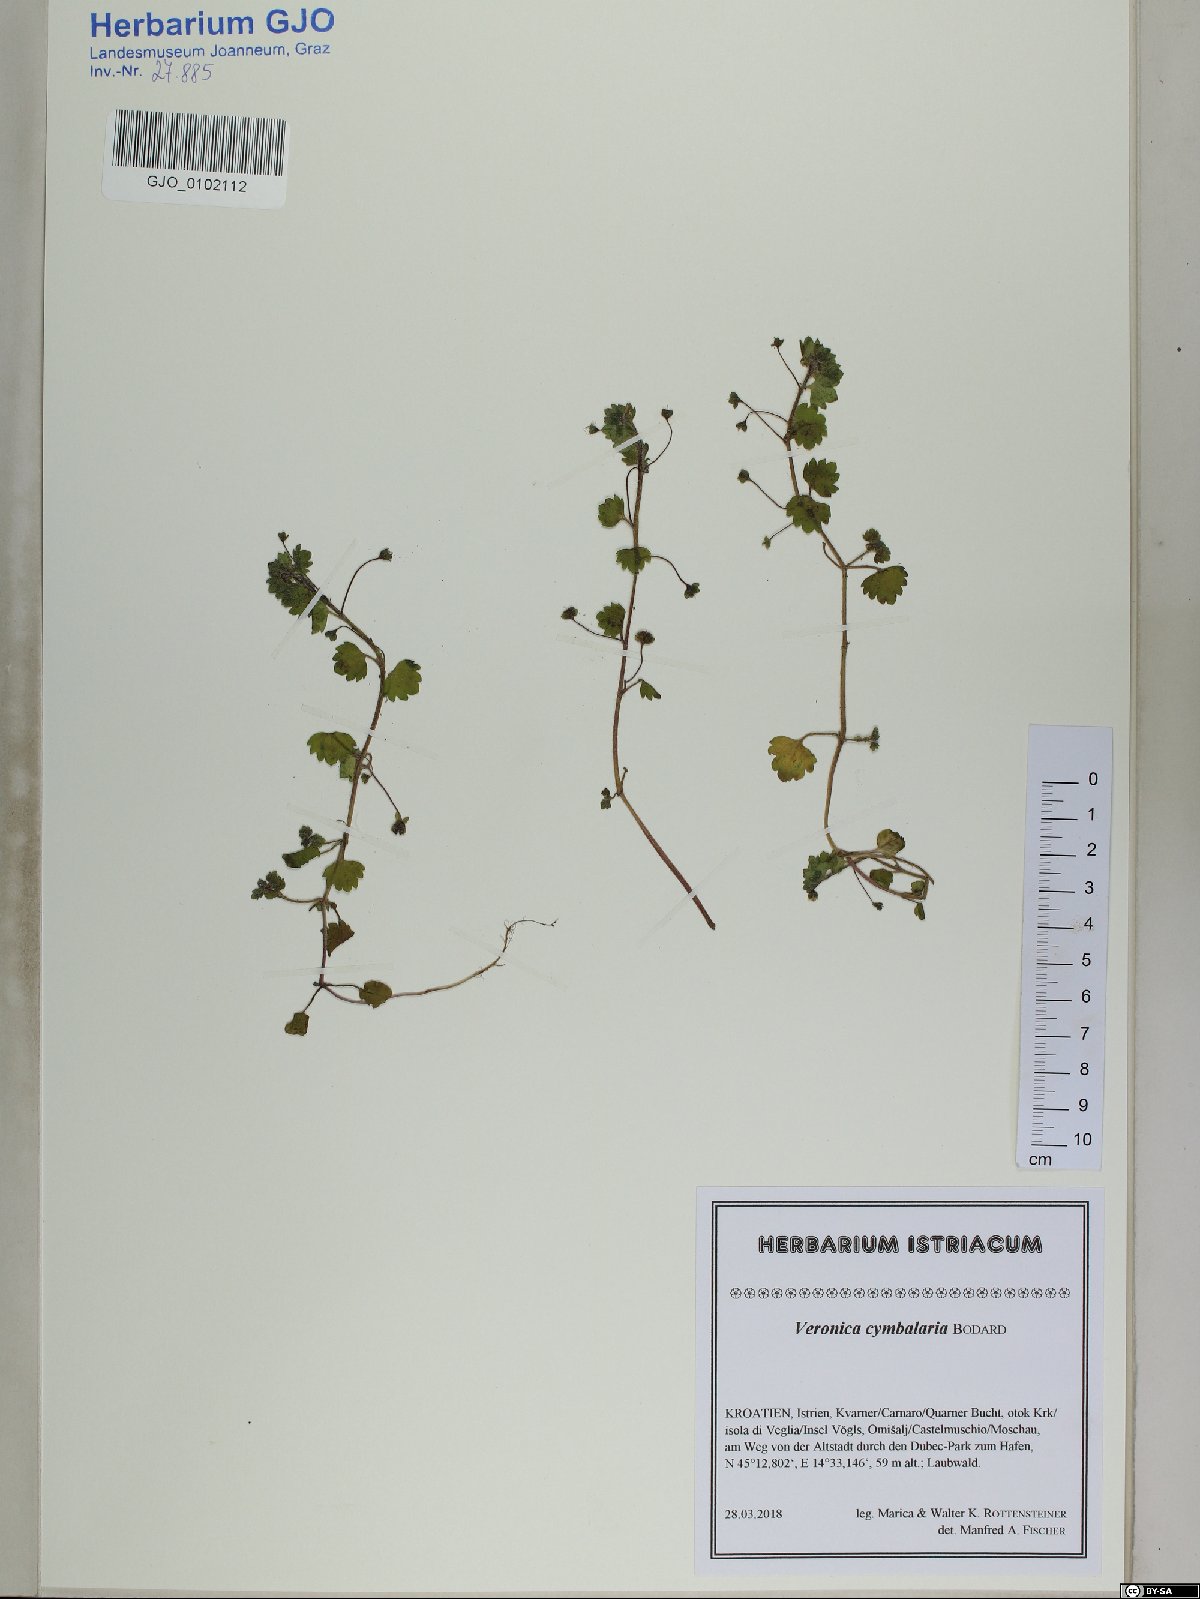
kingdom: Plantae
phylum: Tracheophyta
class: Magnoliopsida
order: Lamiales
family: Plantaginaceae
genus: Veronica
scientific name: Veronica cymbalaria
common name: Pale speedwell
